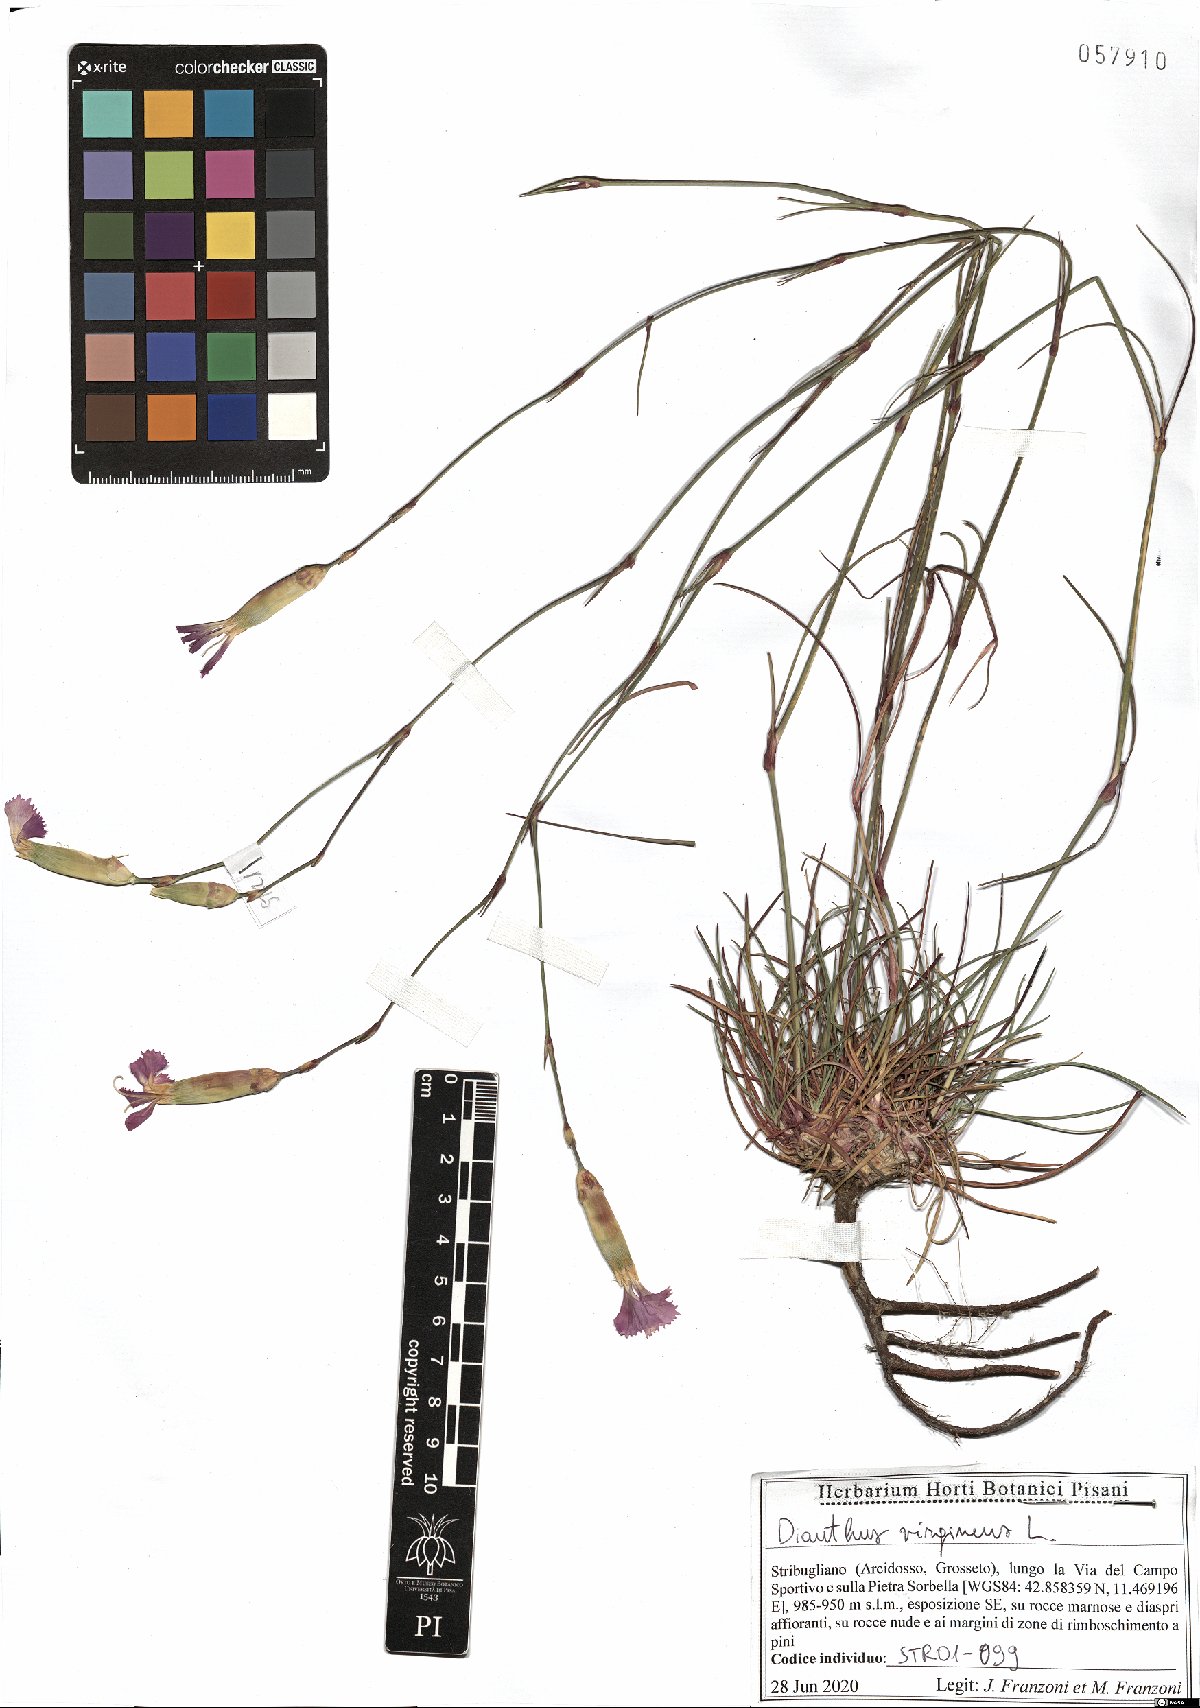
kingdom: Plantae
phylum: Tracheophyta
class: Magnoliopsida
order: Caryophyllales
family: Caryophyllaceae
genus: Dianthus
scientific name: Dianthus virgineus
